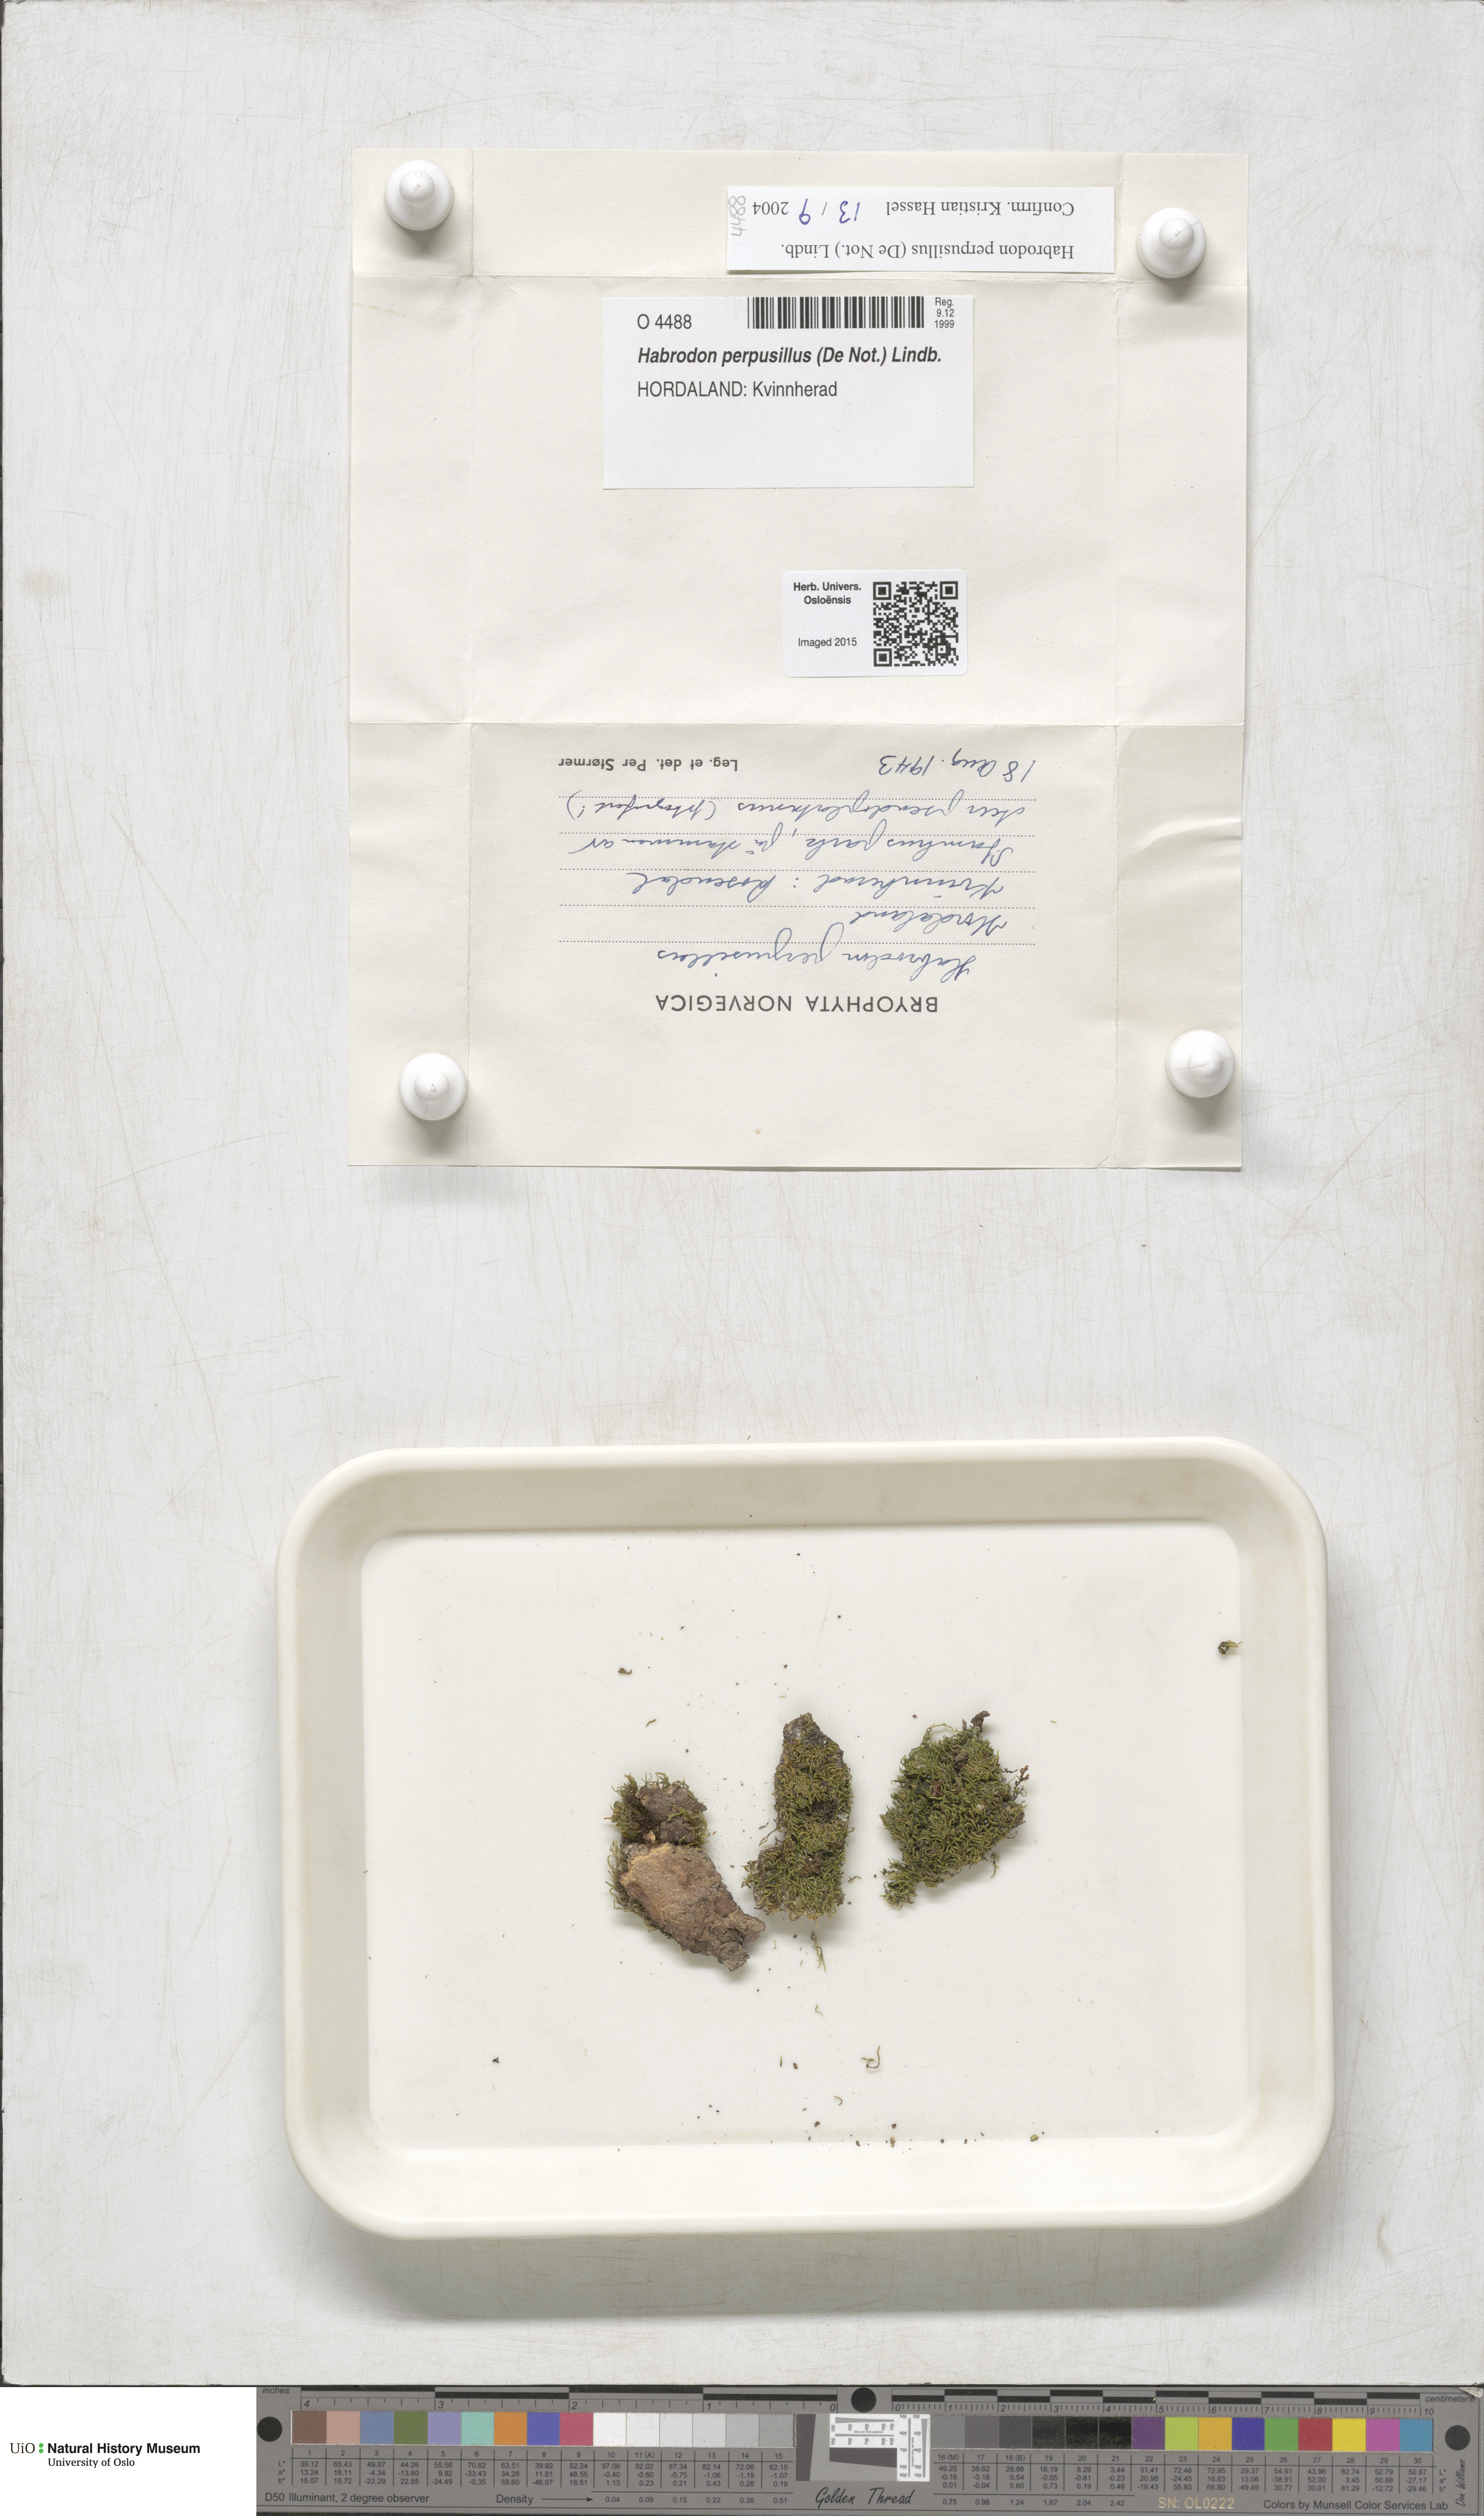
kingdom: Plantae
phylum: Bryophyta
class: Bryopsida
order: Hypnales
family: Habrodontaceae
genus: Habrodon
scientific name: Habrodon perpusillus
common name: Lesser squirrel-tail moss
